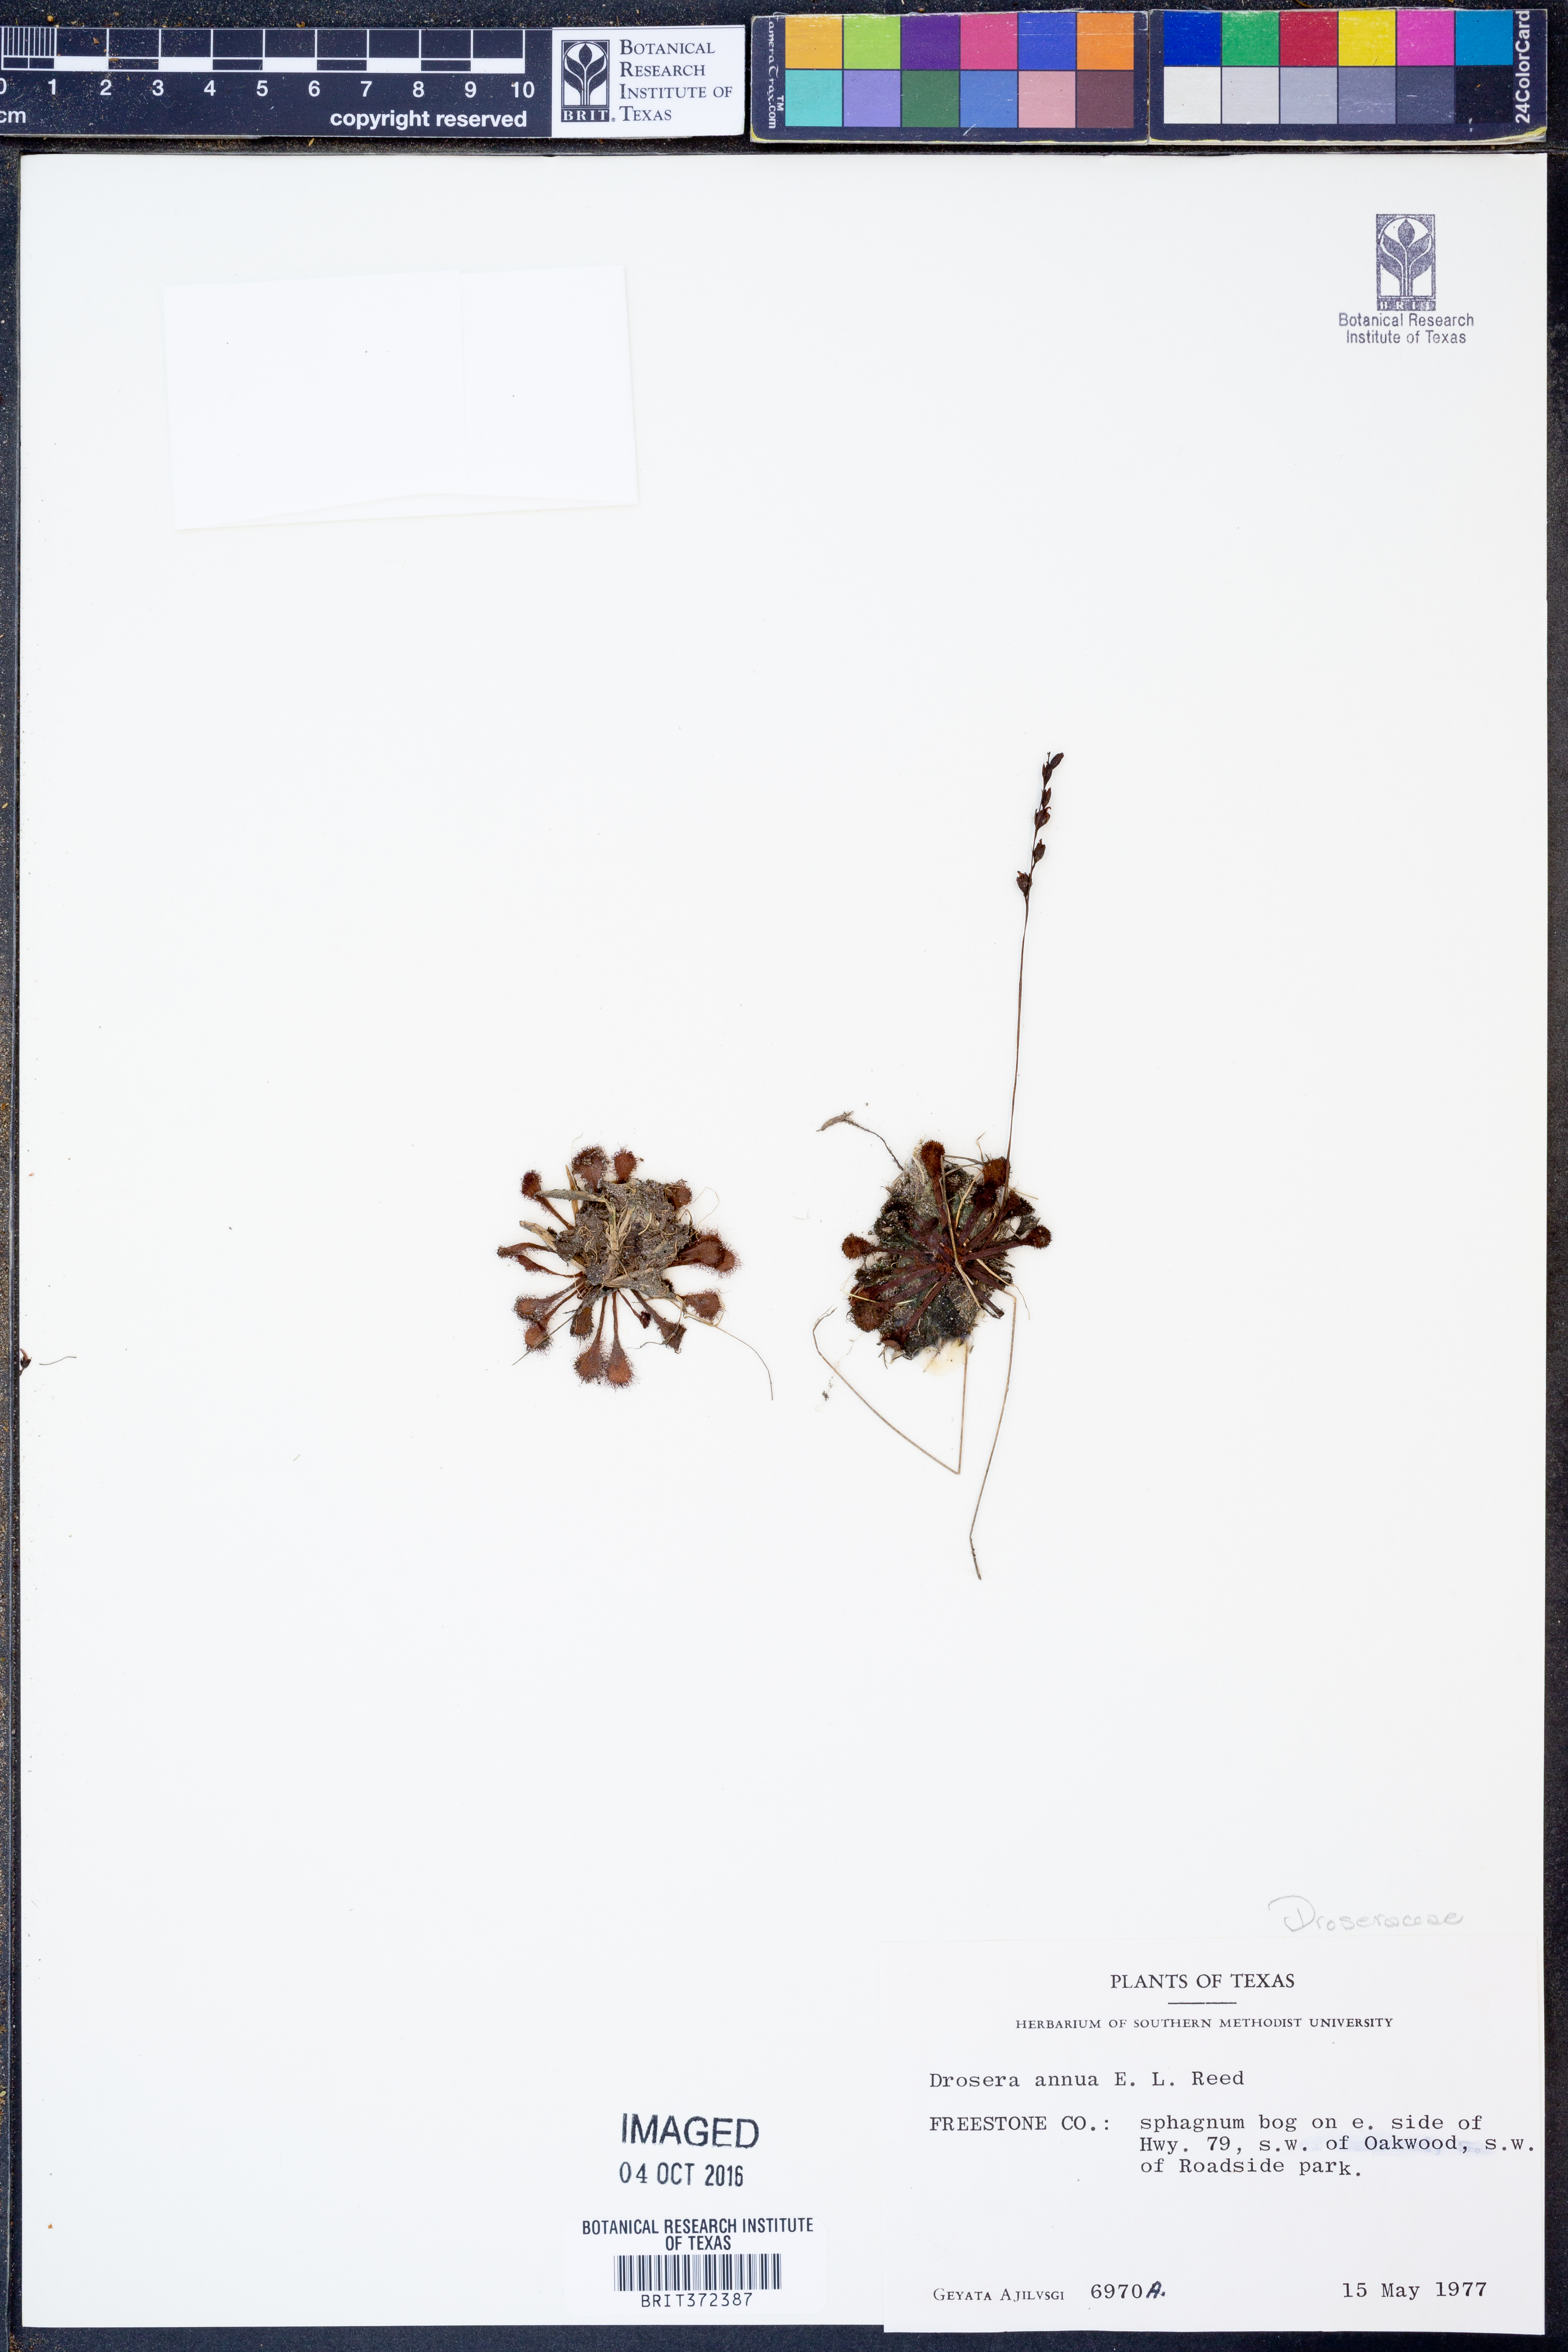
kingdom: Plantae
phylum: Tracheophyta
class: Magnoliopsida
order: Caryophyllales
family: Droseraceae
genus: Drosera
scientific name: Drosera brevifolia
